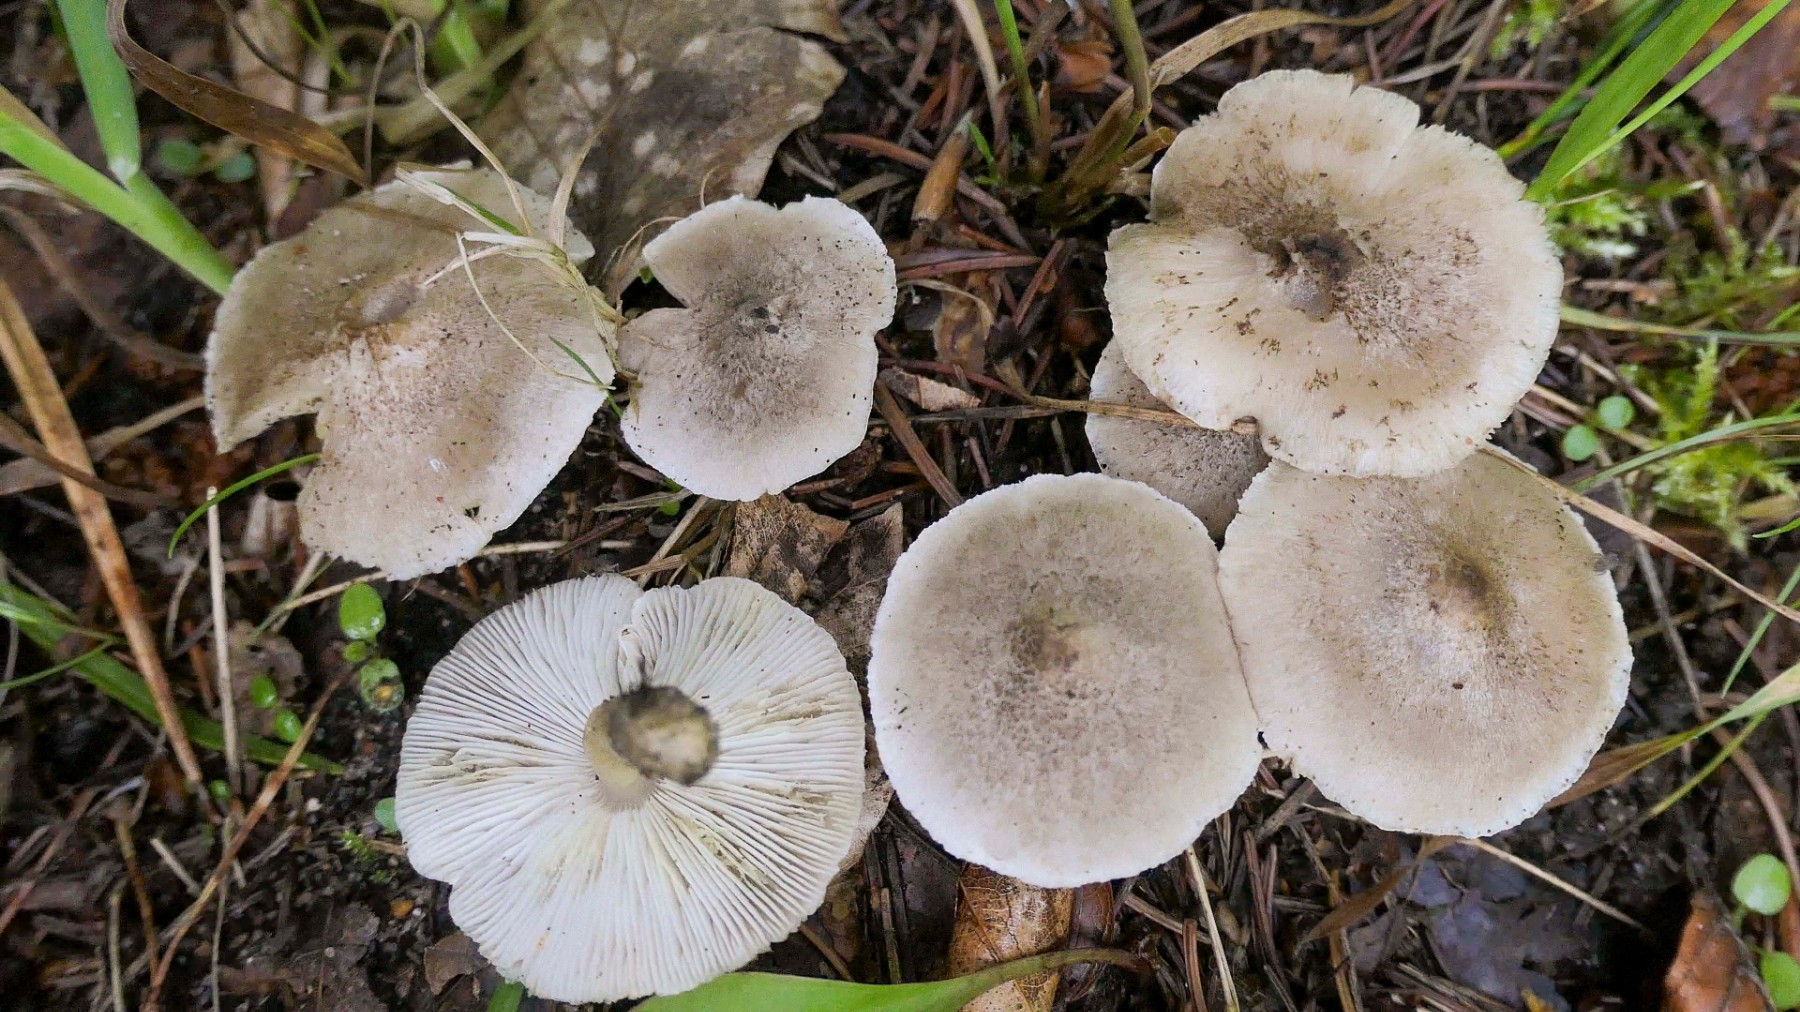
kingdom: Fungi
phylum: Basidiomycota
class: Agaricomycetes
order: Agaricales
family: Tricholomataceae
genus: Tricholoma
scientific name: Tricholoma argyraceum
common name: spids ridderhat
